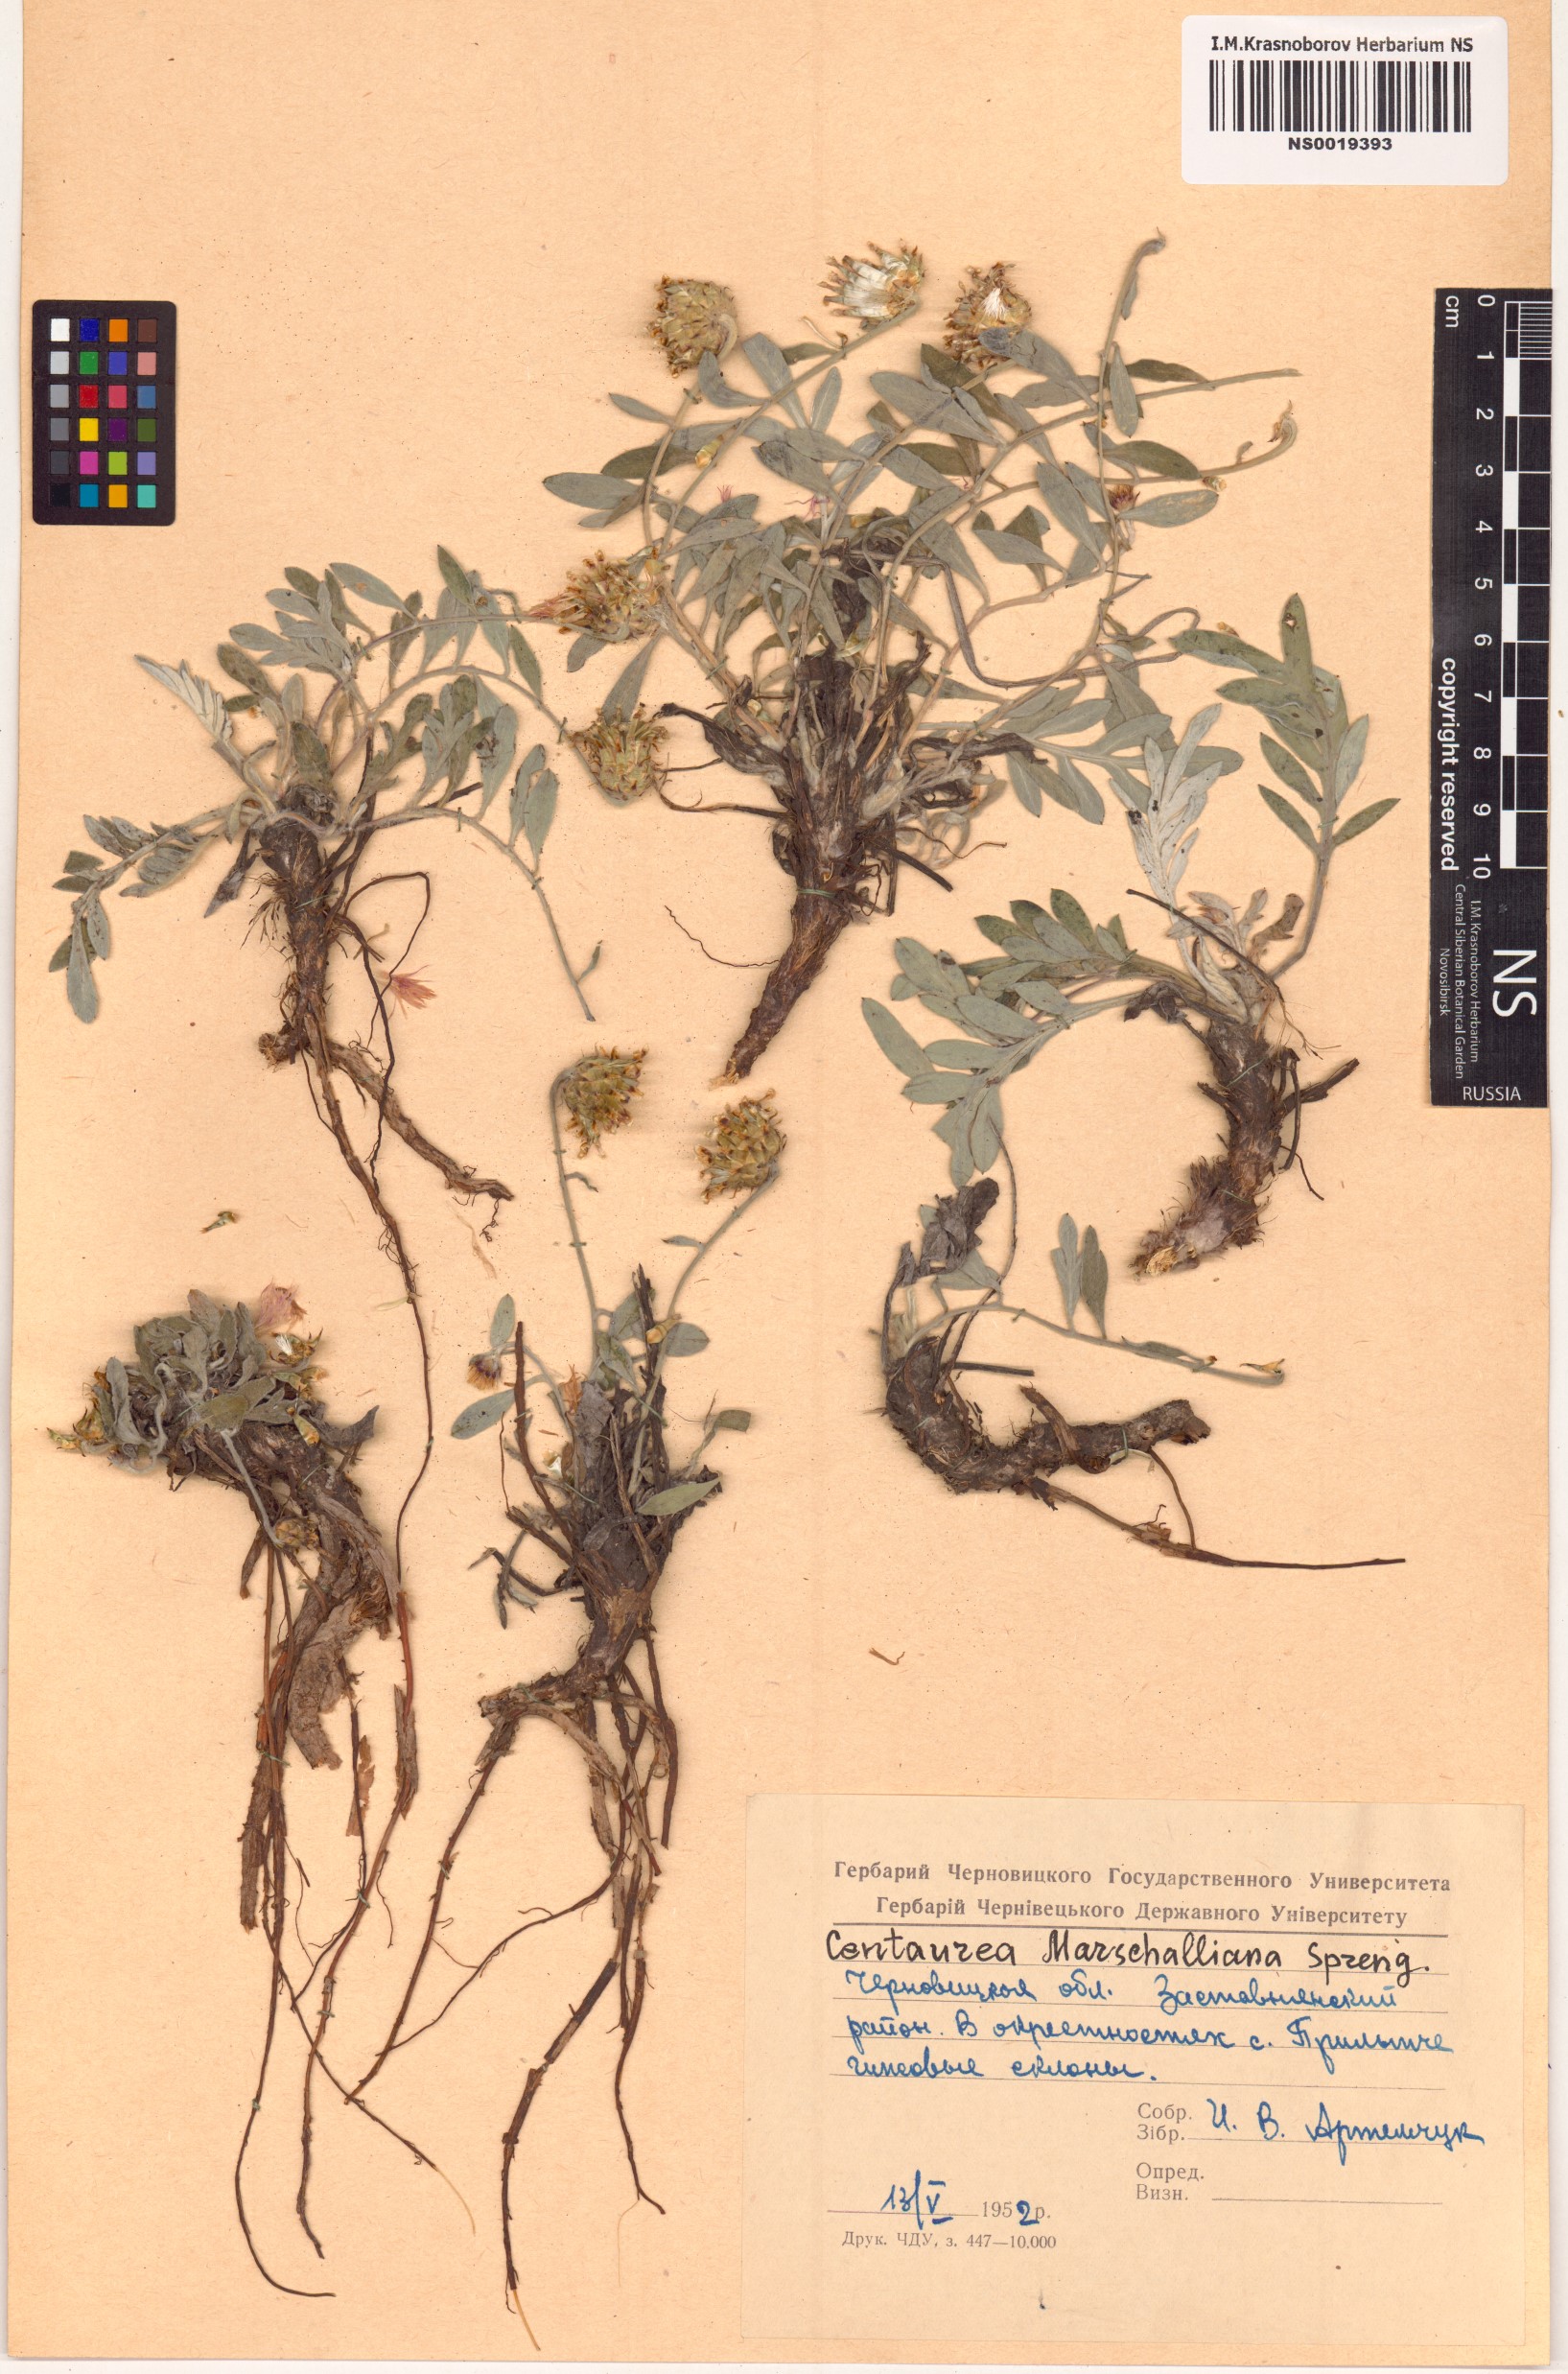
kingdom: Plantae
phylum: Tracheophyta
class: Magnoliopsida
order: Asterales
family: Asteraceae
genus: Psephellus
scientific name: Psephellus marschallianus
